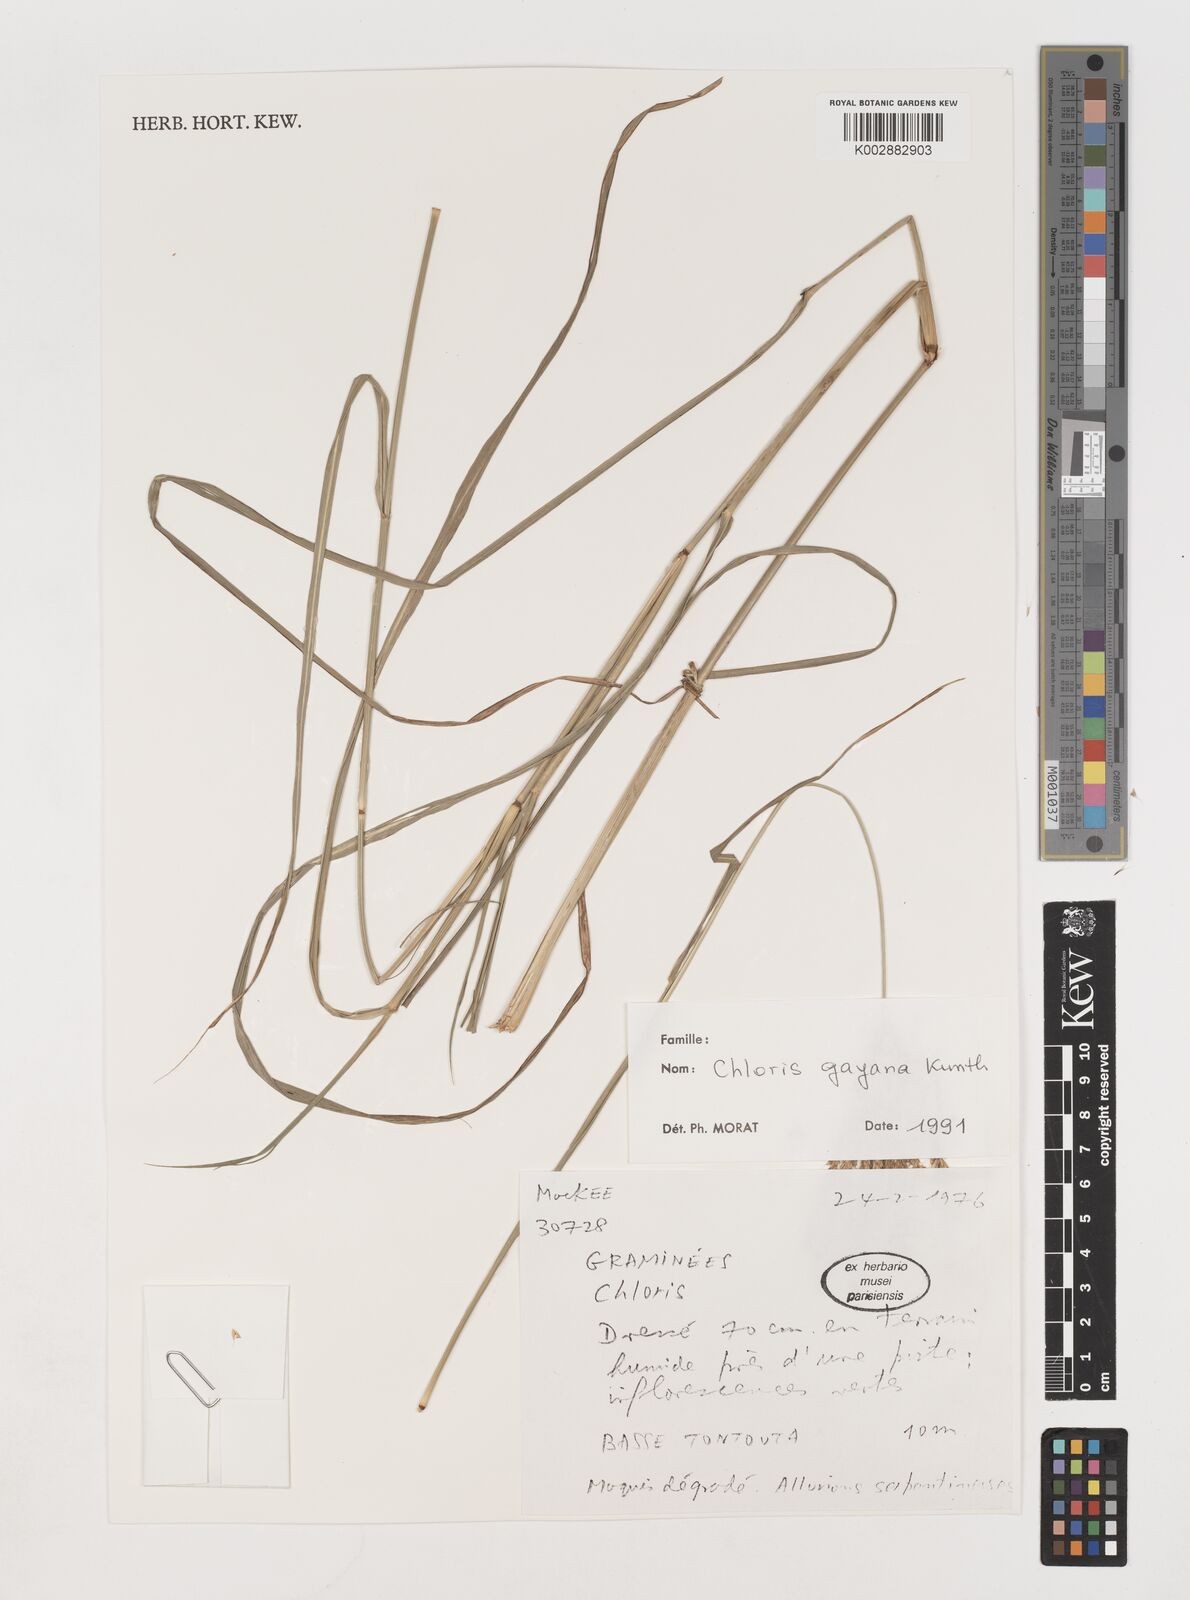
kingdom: Plantae
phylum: Tracheophyta
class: Liliopsida
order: Poales
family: Poaceae
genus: Chloris
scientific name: Chloris gayana
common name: Rhodes grass
